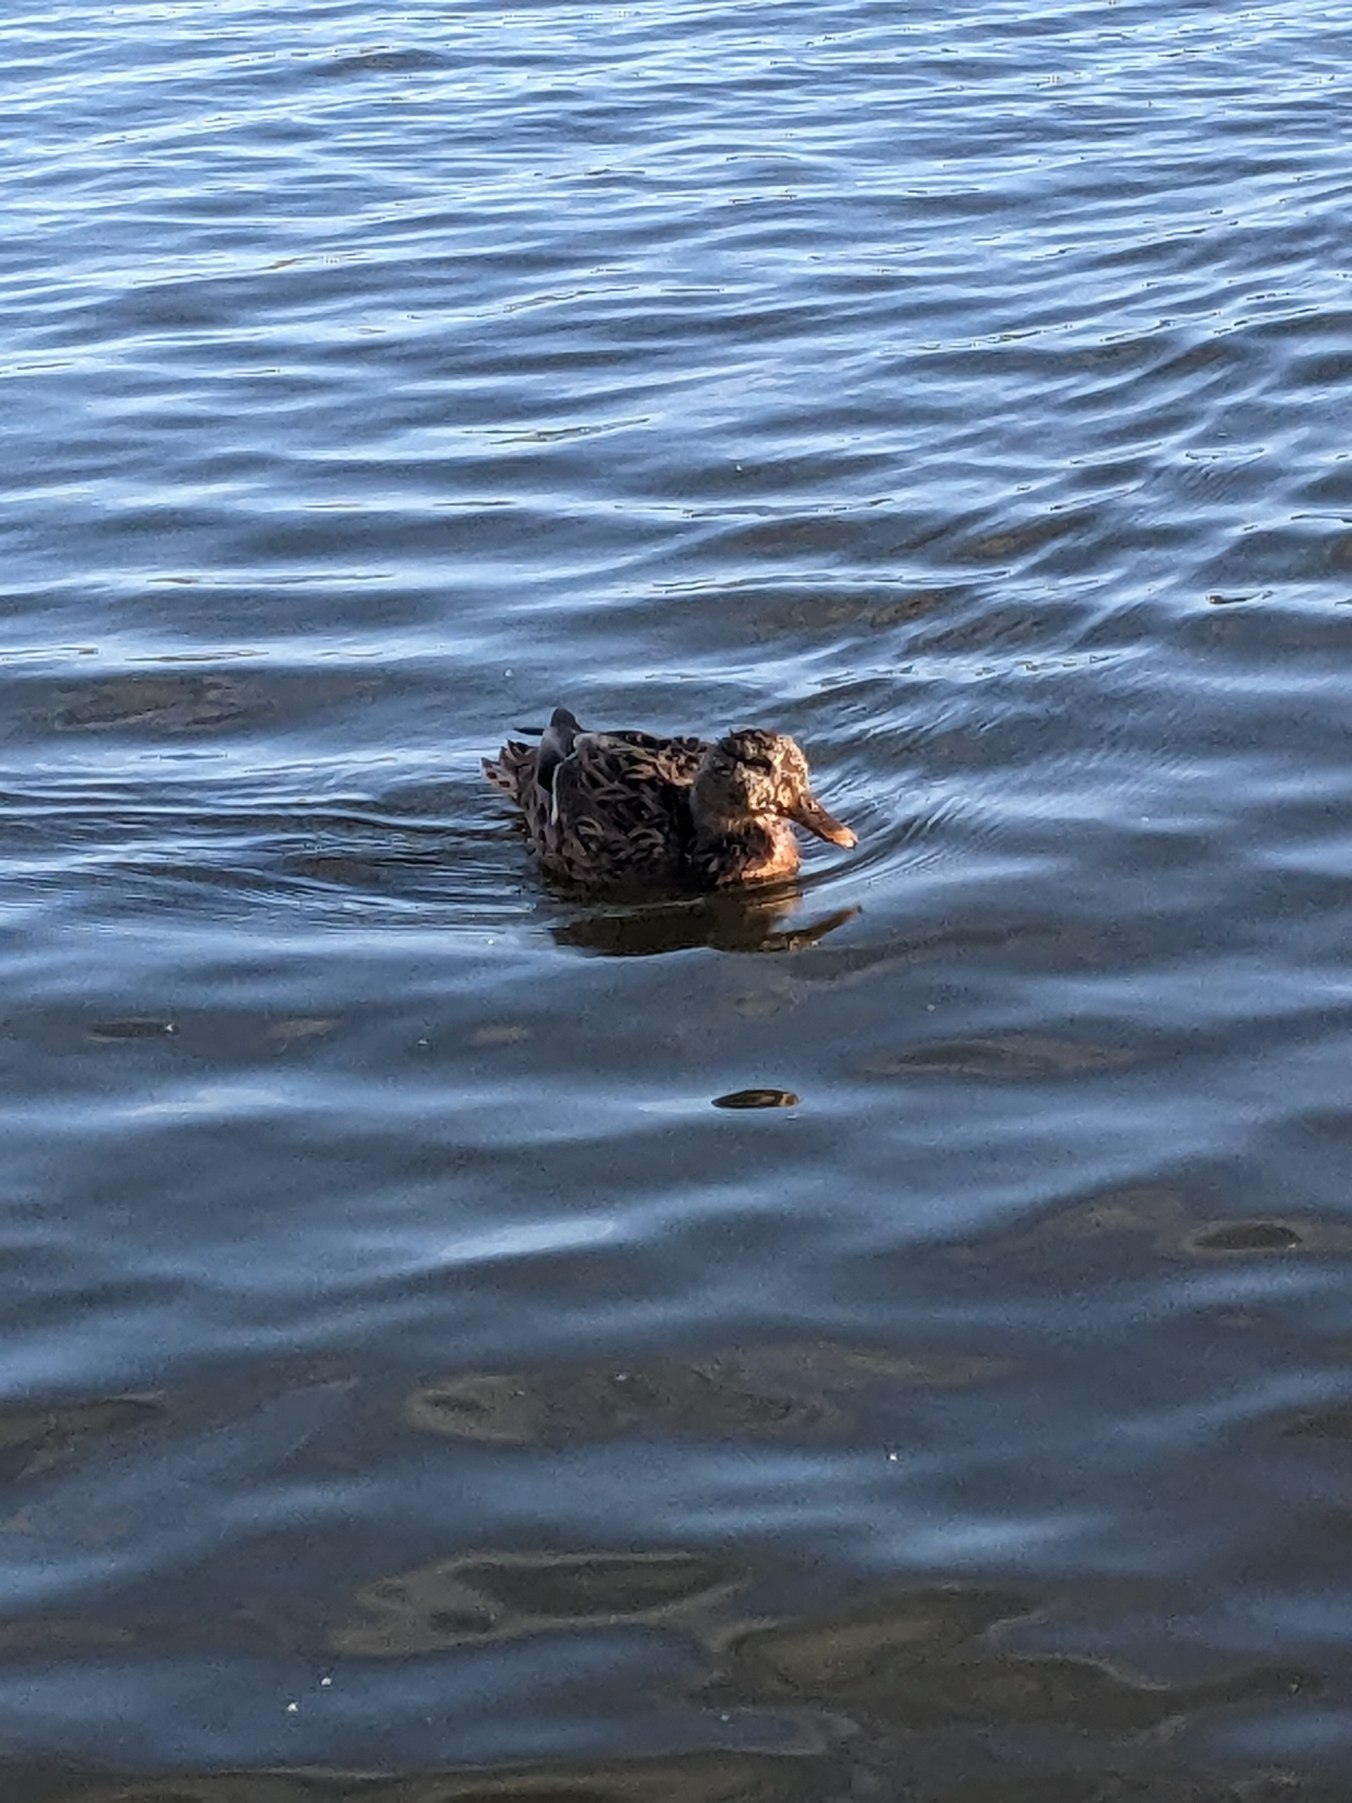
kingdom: Animalia
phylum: Chordata
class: Aves
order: Anseriformes
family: Anatidae
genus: Anas
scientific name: Anas platyrhynchos
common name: Gråand
